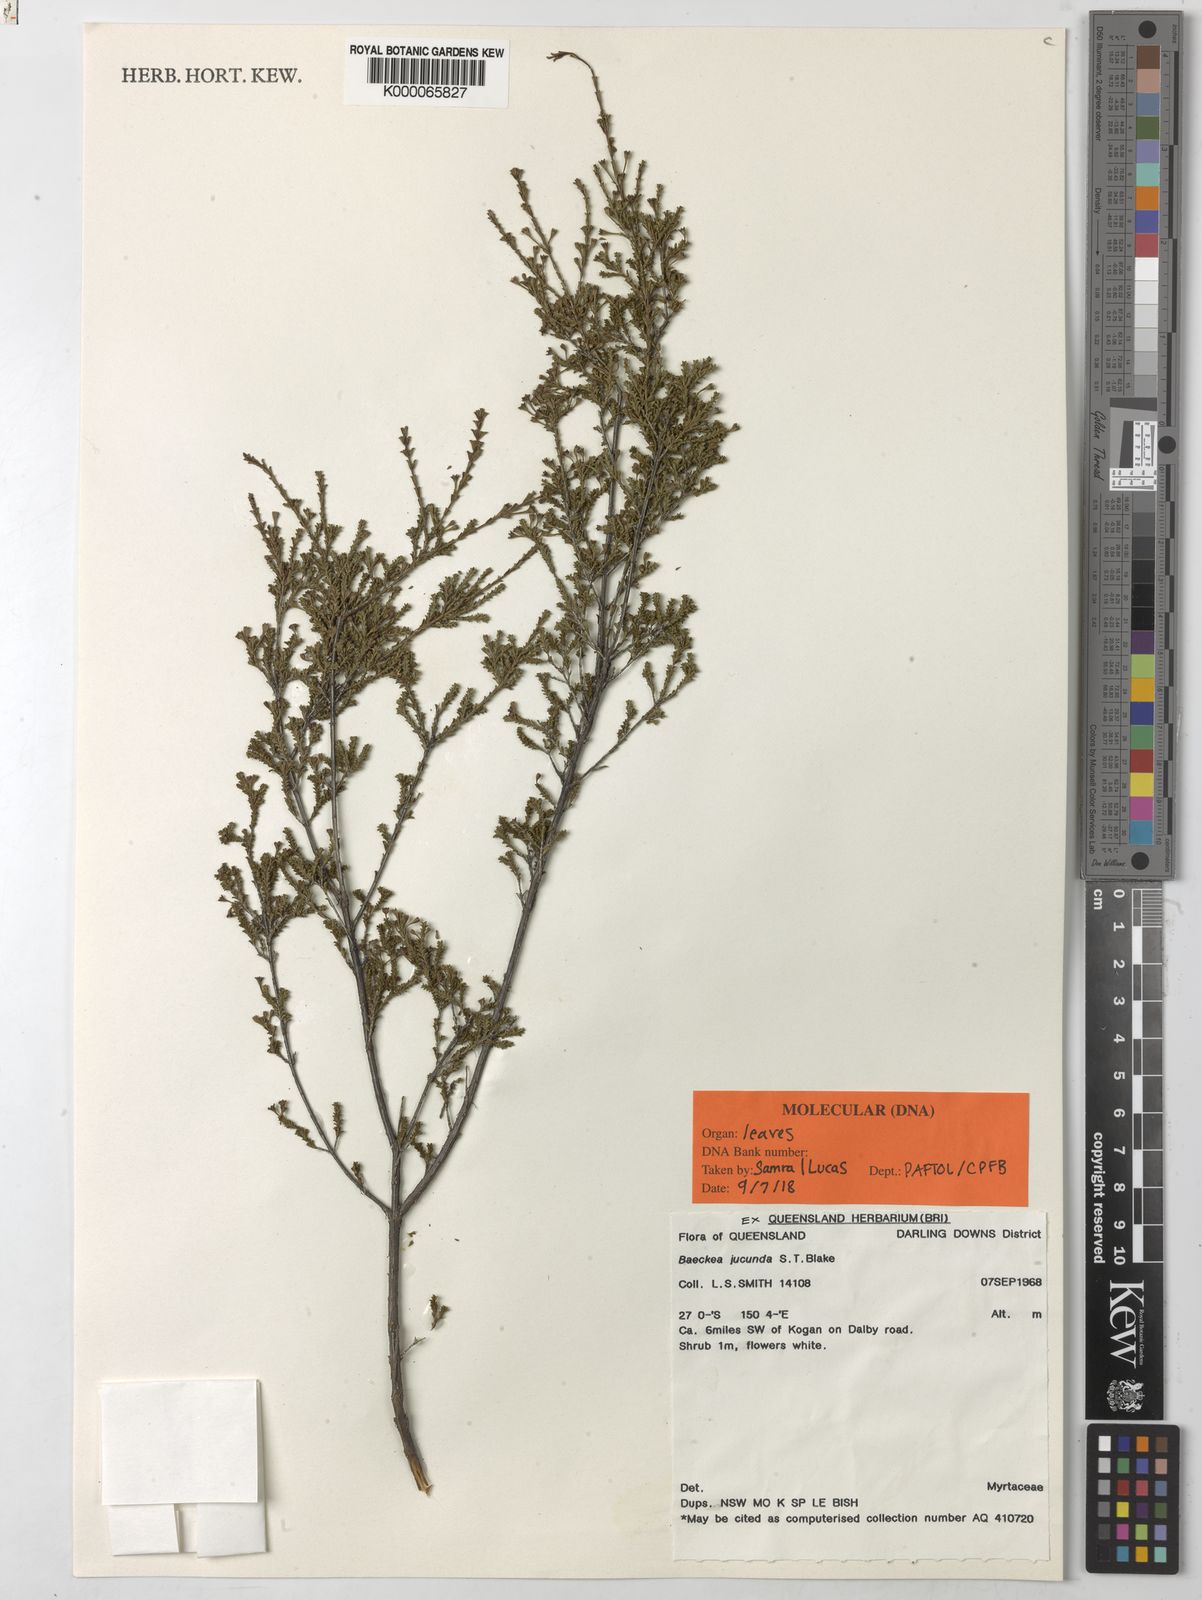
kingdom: Plantae
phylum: Tracheophyta
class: Magnoliopsida
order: Myrtales
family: Myrtaceae
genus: Kardomia
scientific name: Kardomia jucunda
